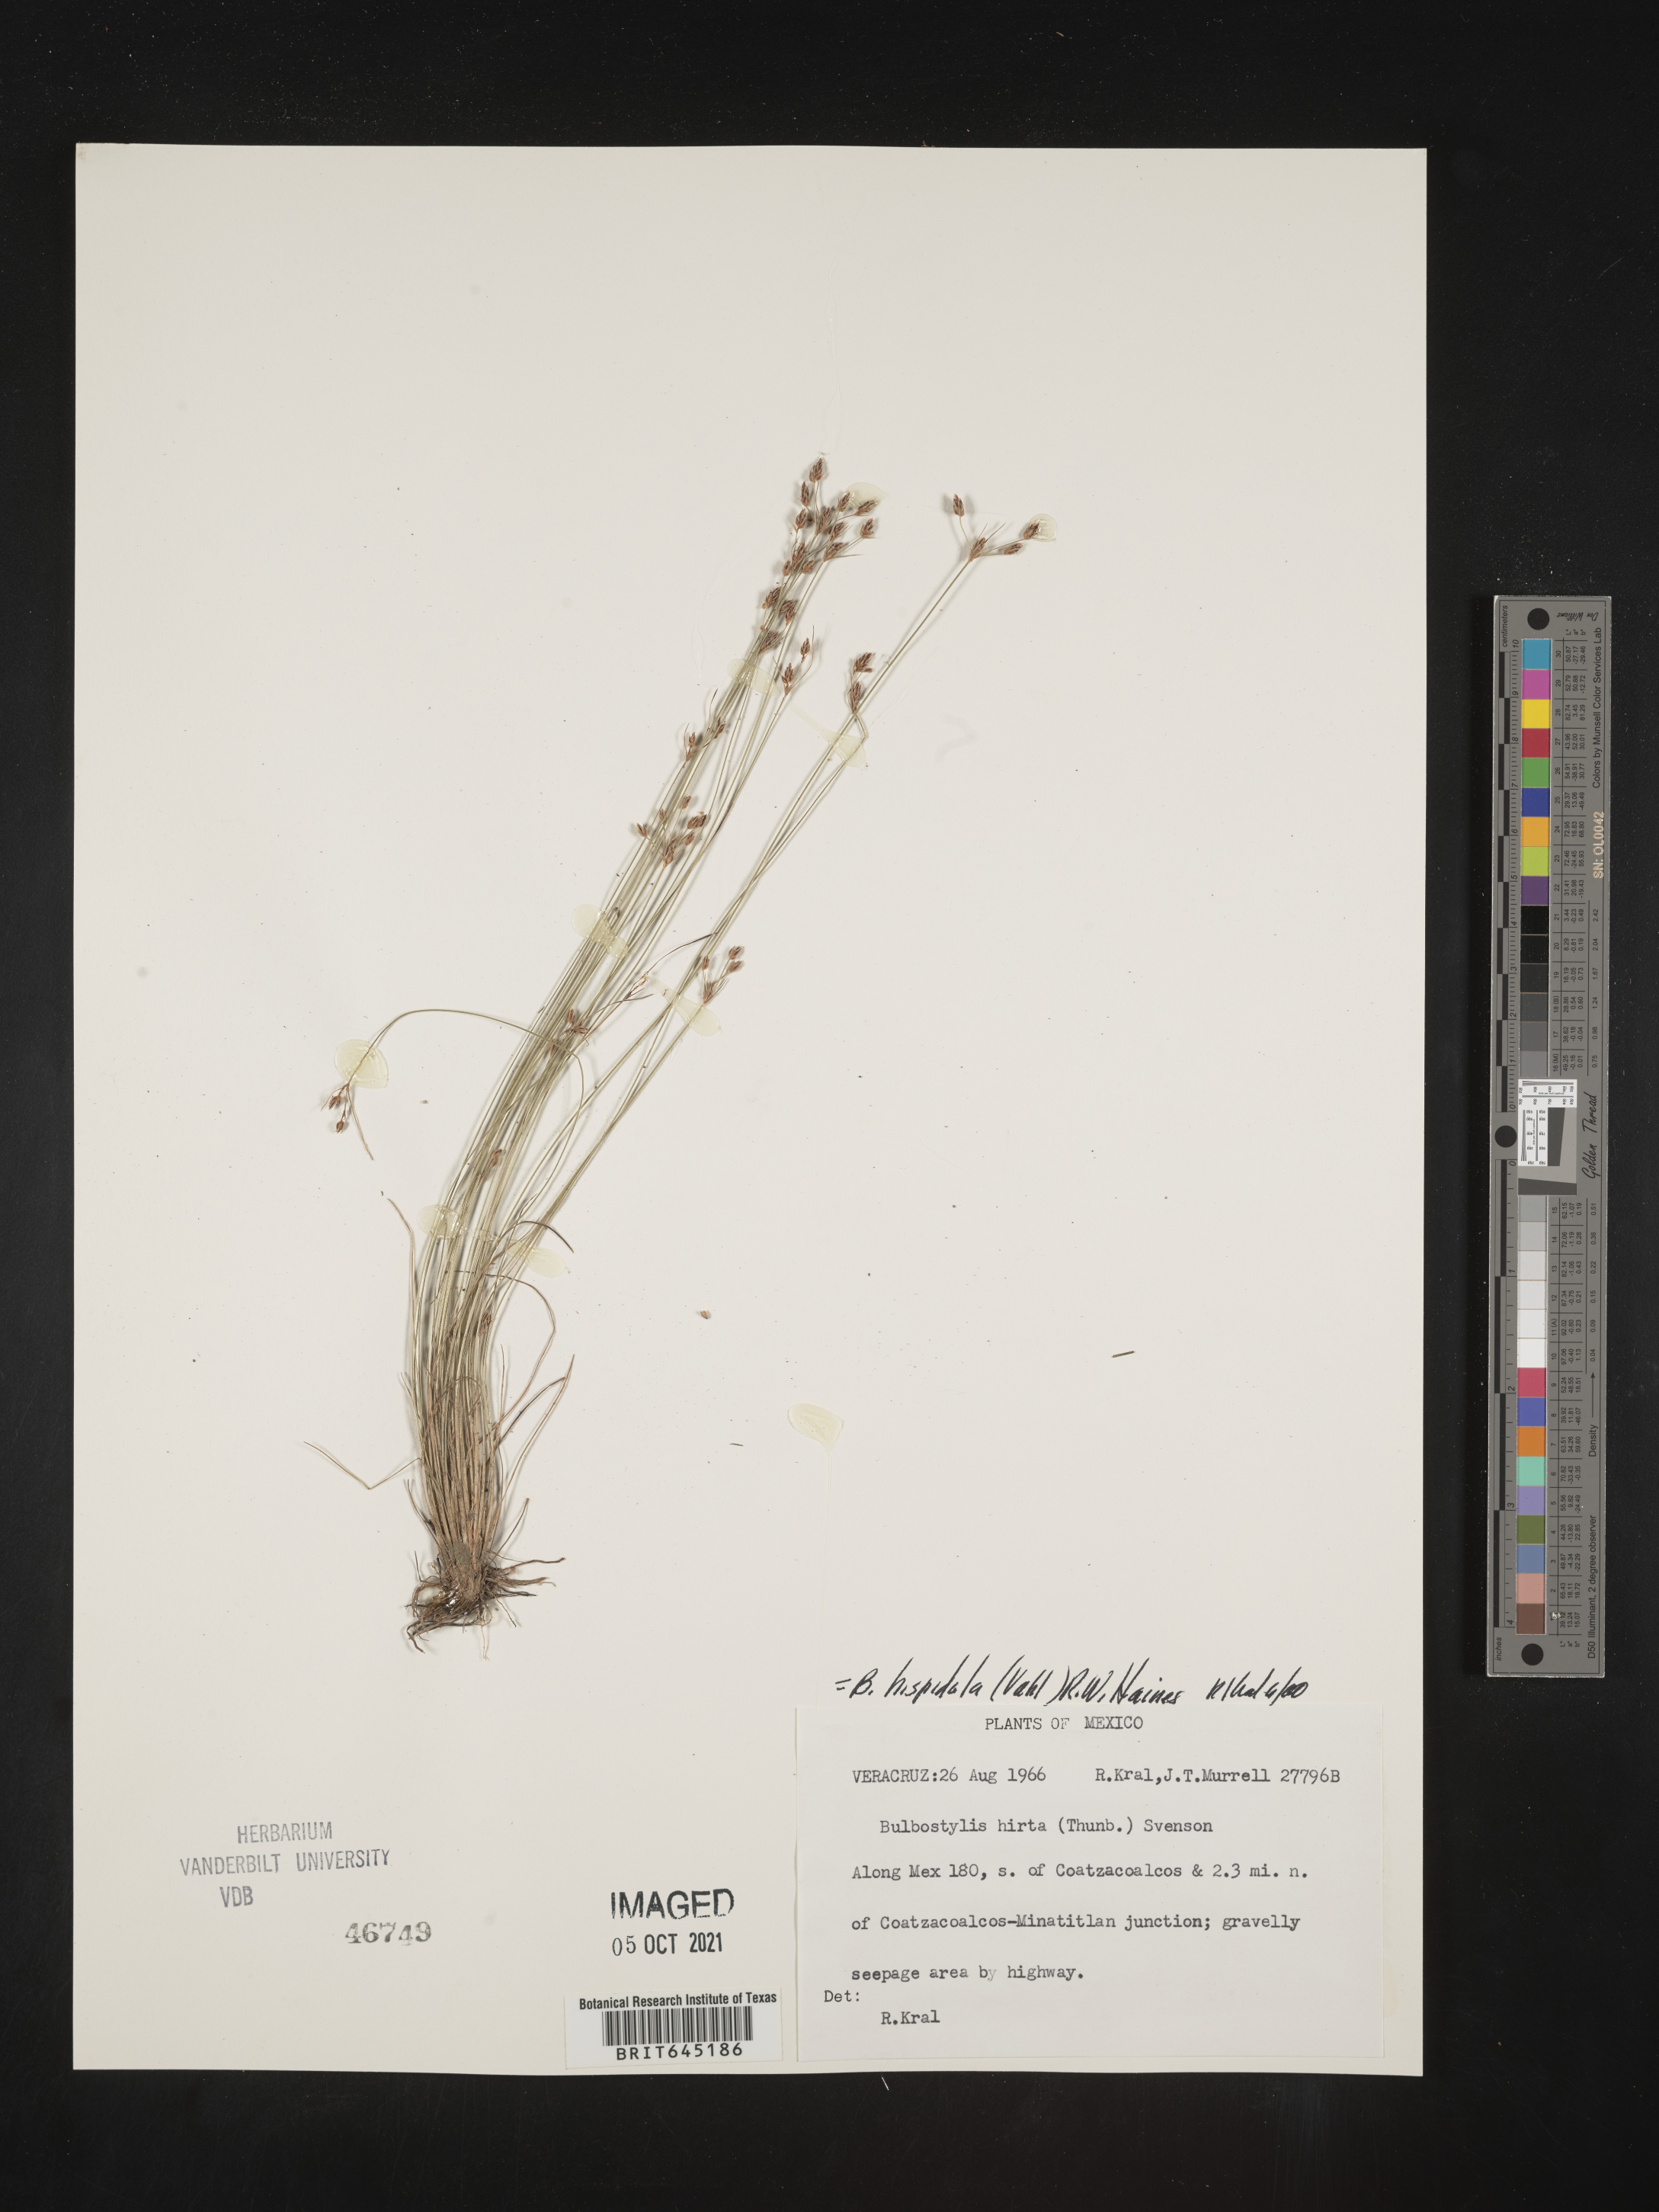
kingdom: Plantae
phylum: Tracheophyta
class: Liliopsida
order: Poales
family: Cyperaceae
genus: Bulbostylis
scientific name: Bulbostylis hispidula
